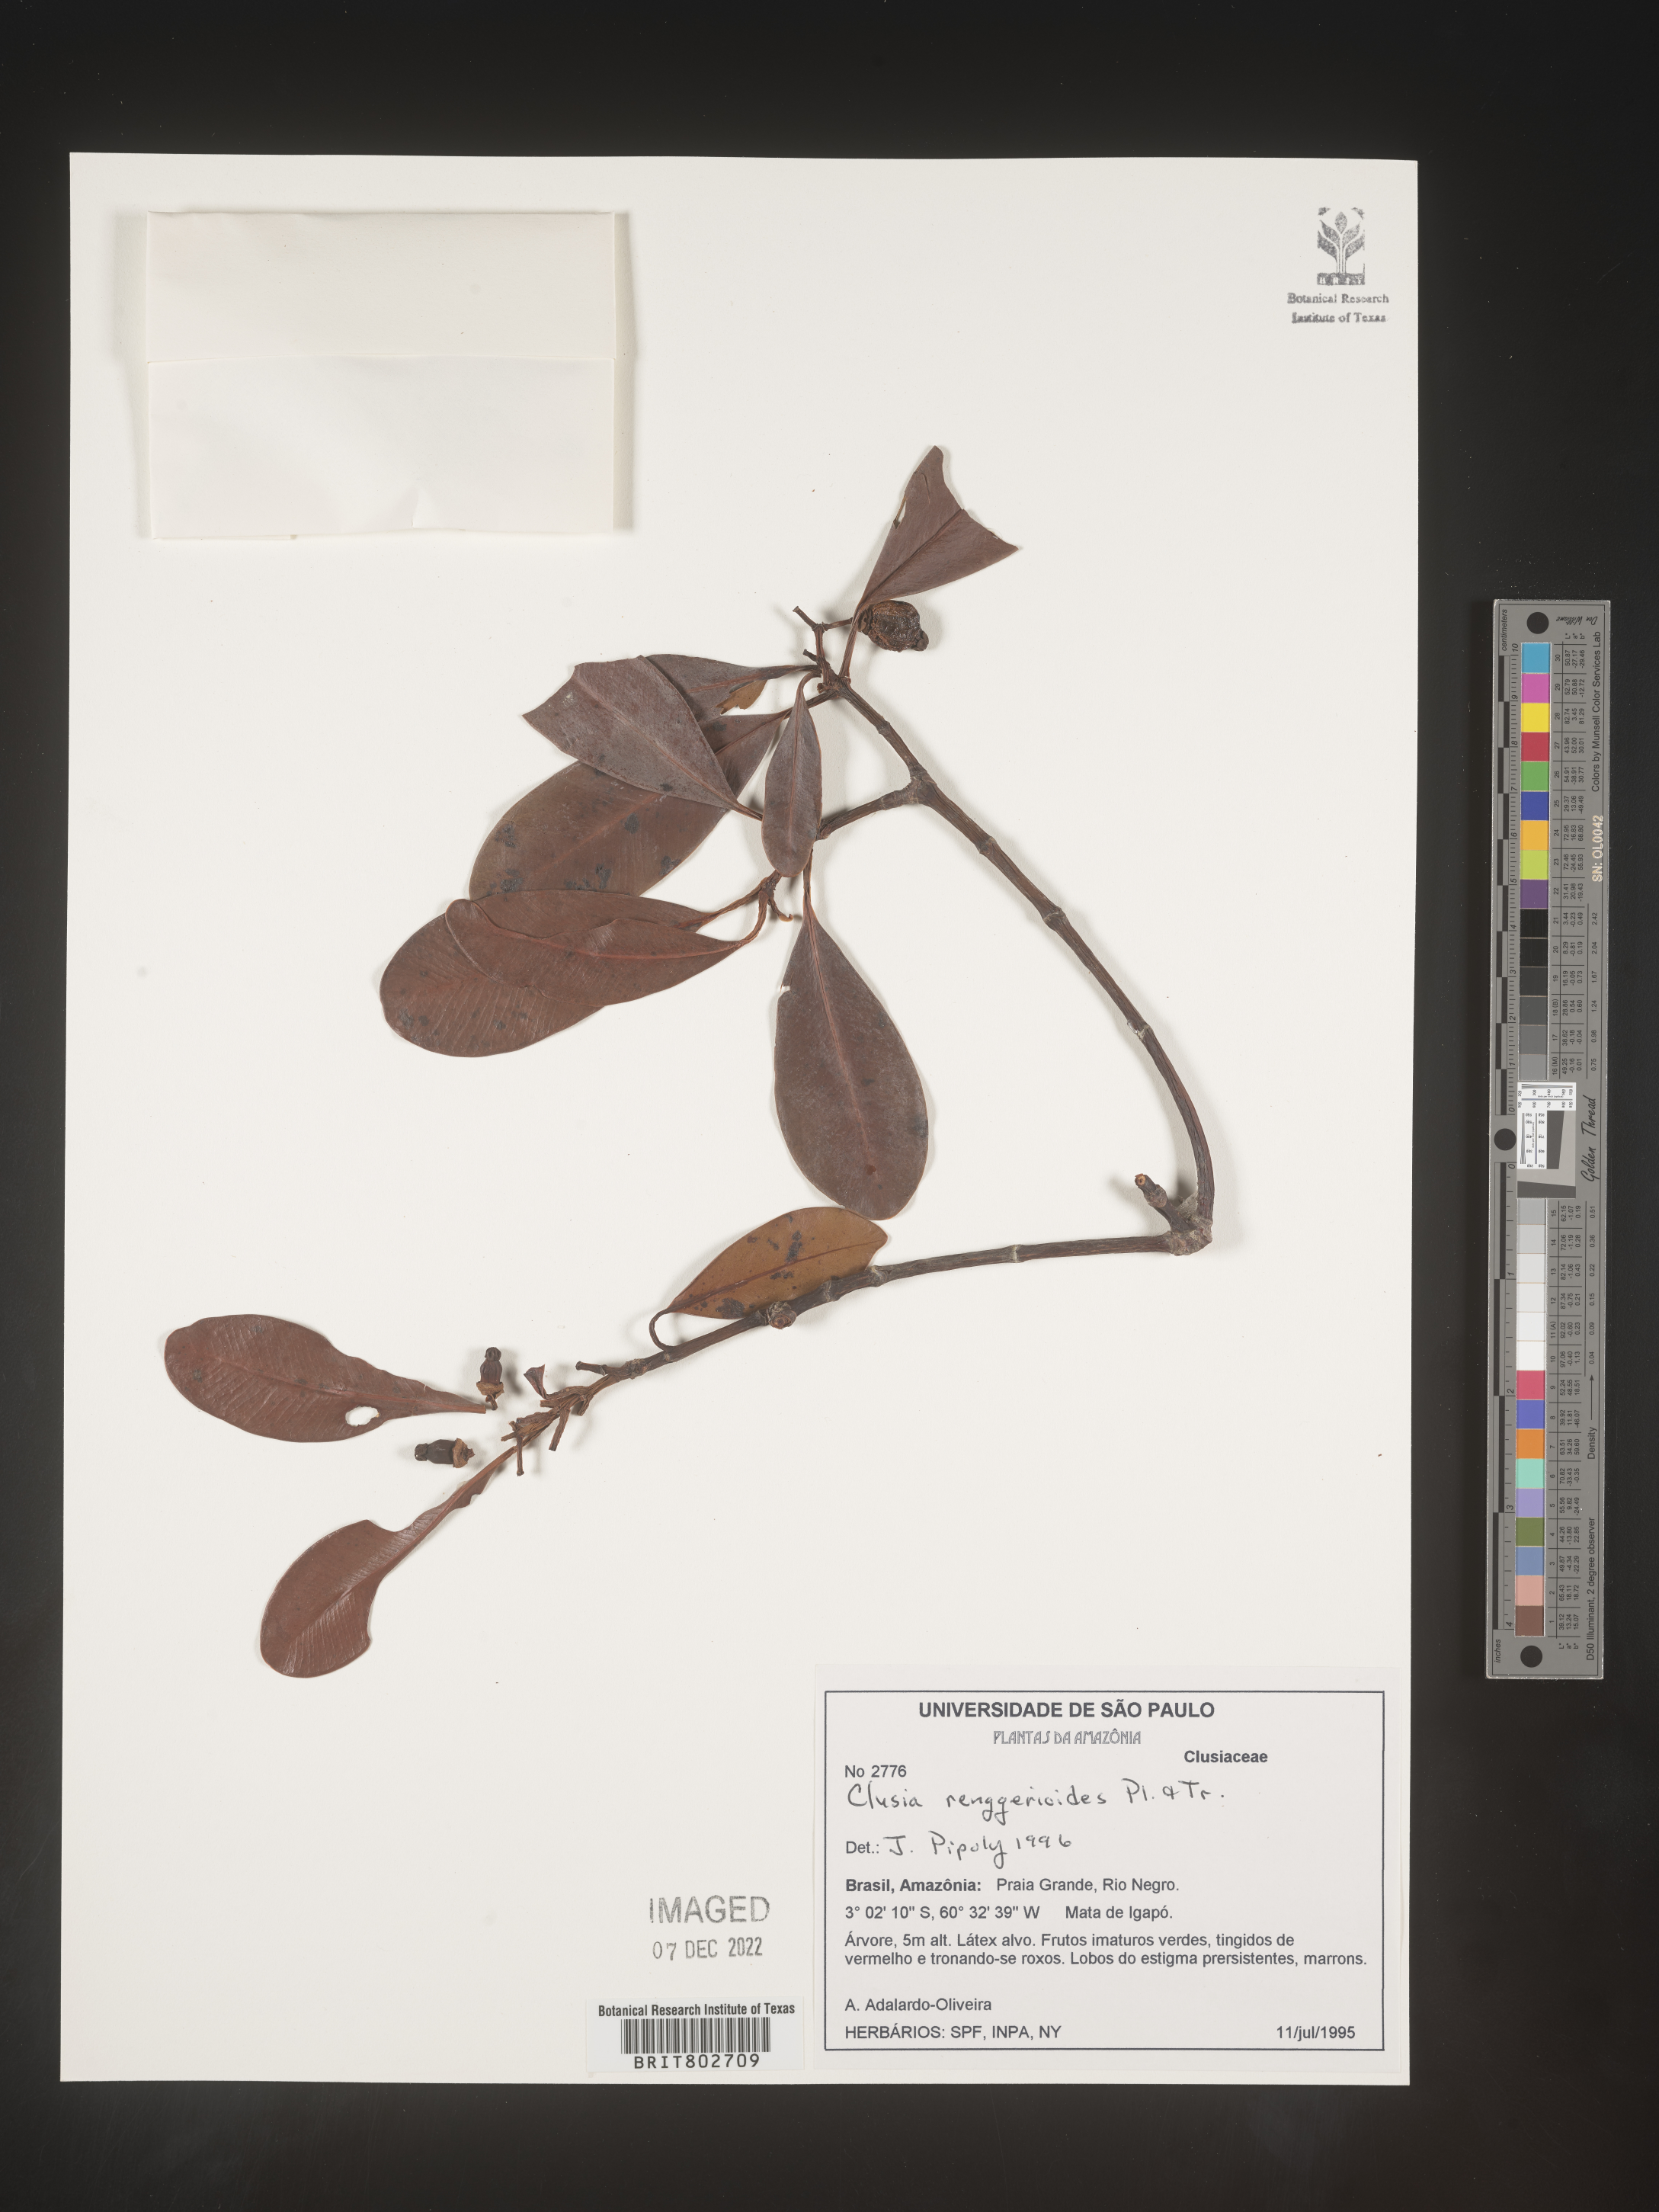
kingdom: Plantae
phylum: Tracheophyta
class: Magnoliopsida
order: Malpighiales
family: Clusiaceae
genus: Clusia
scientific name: Clusia renggerioides
